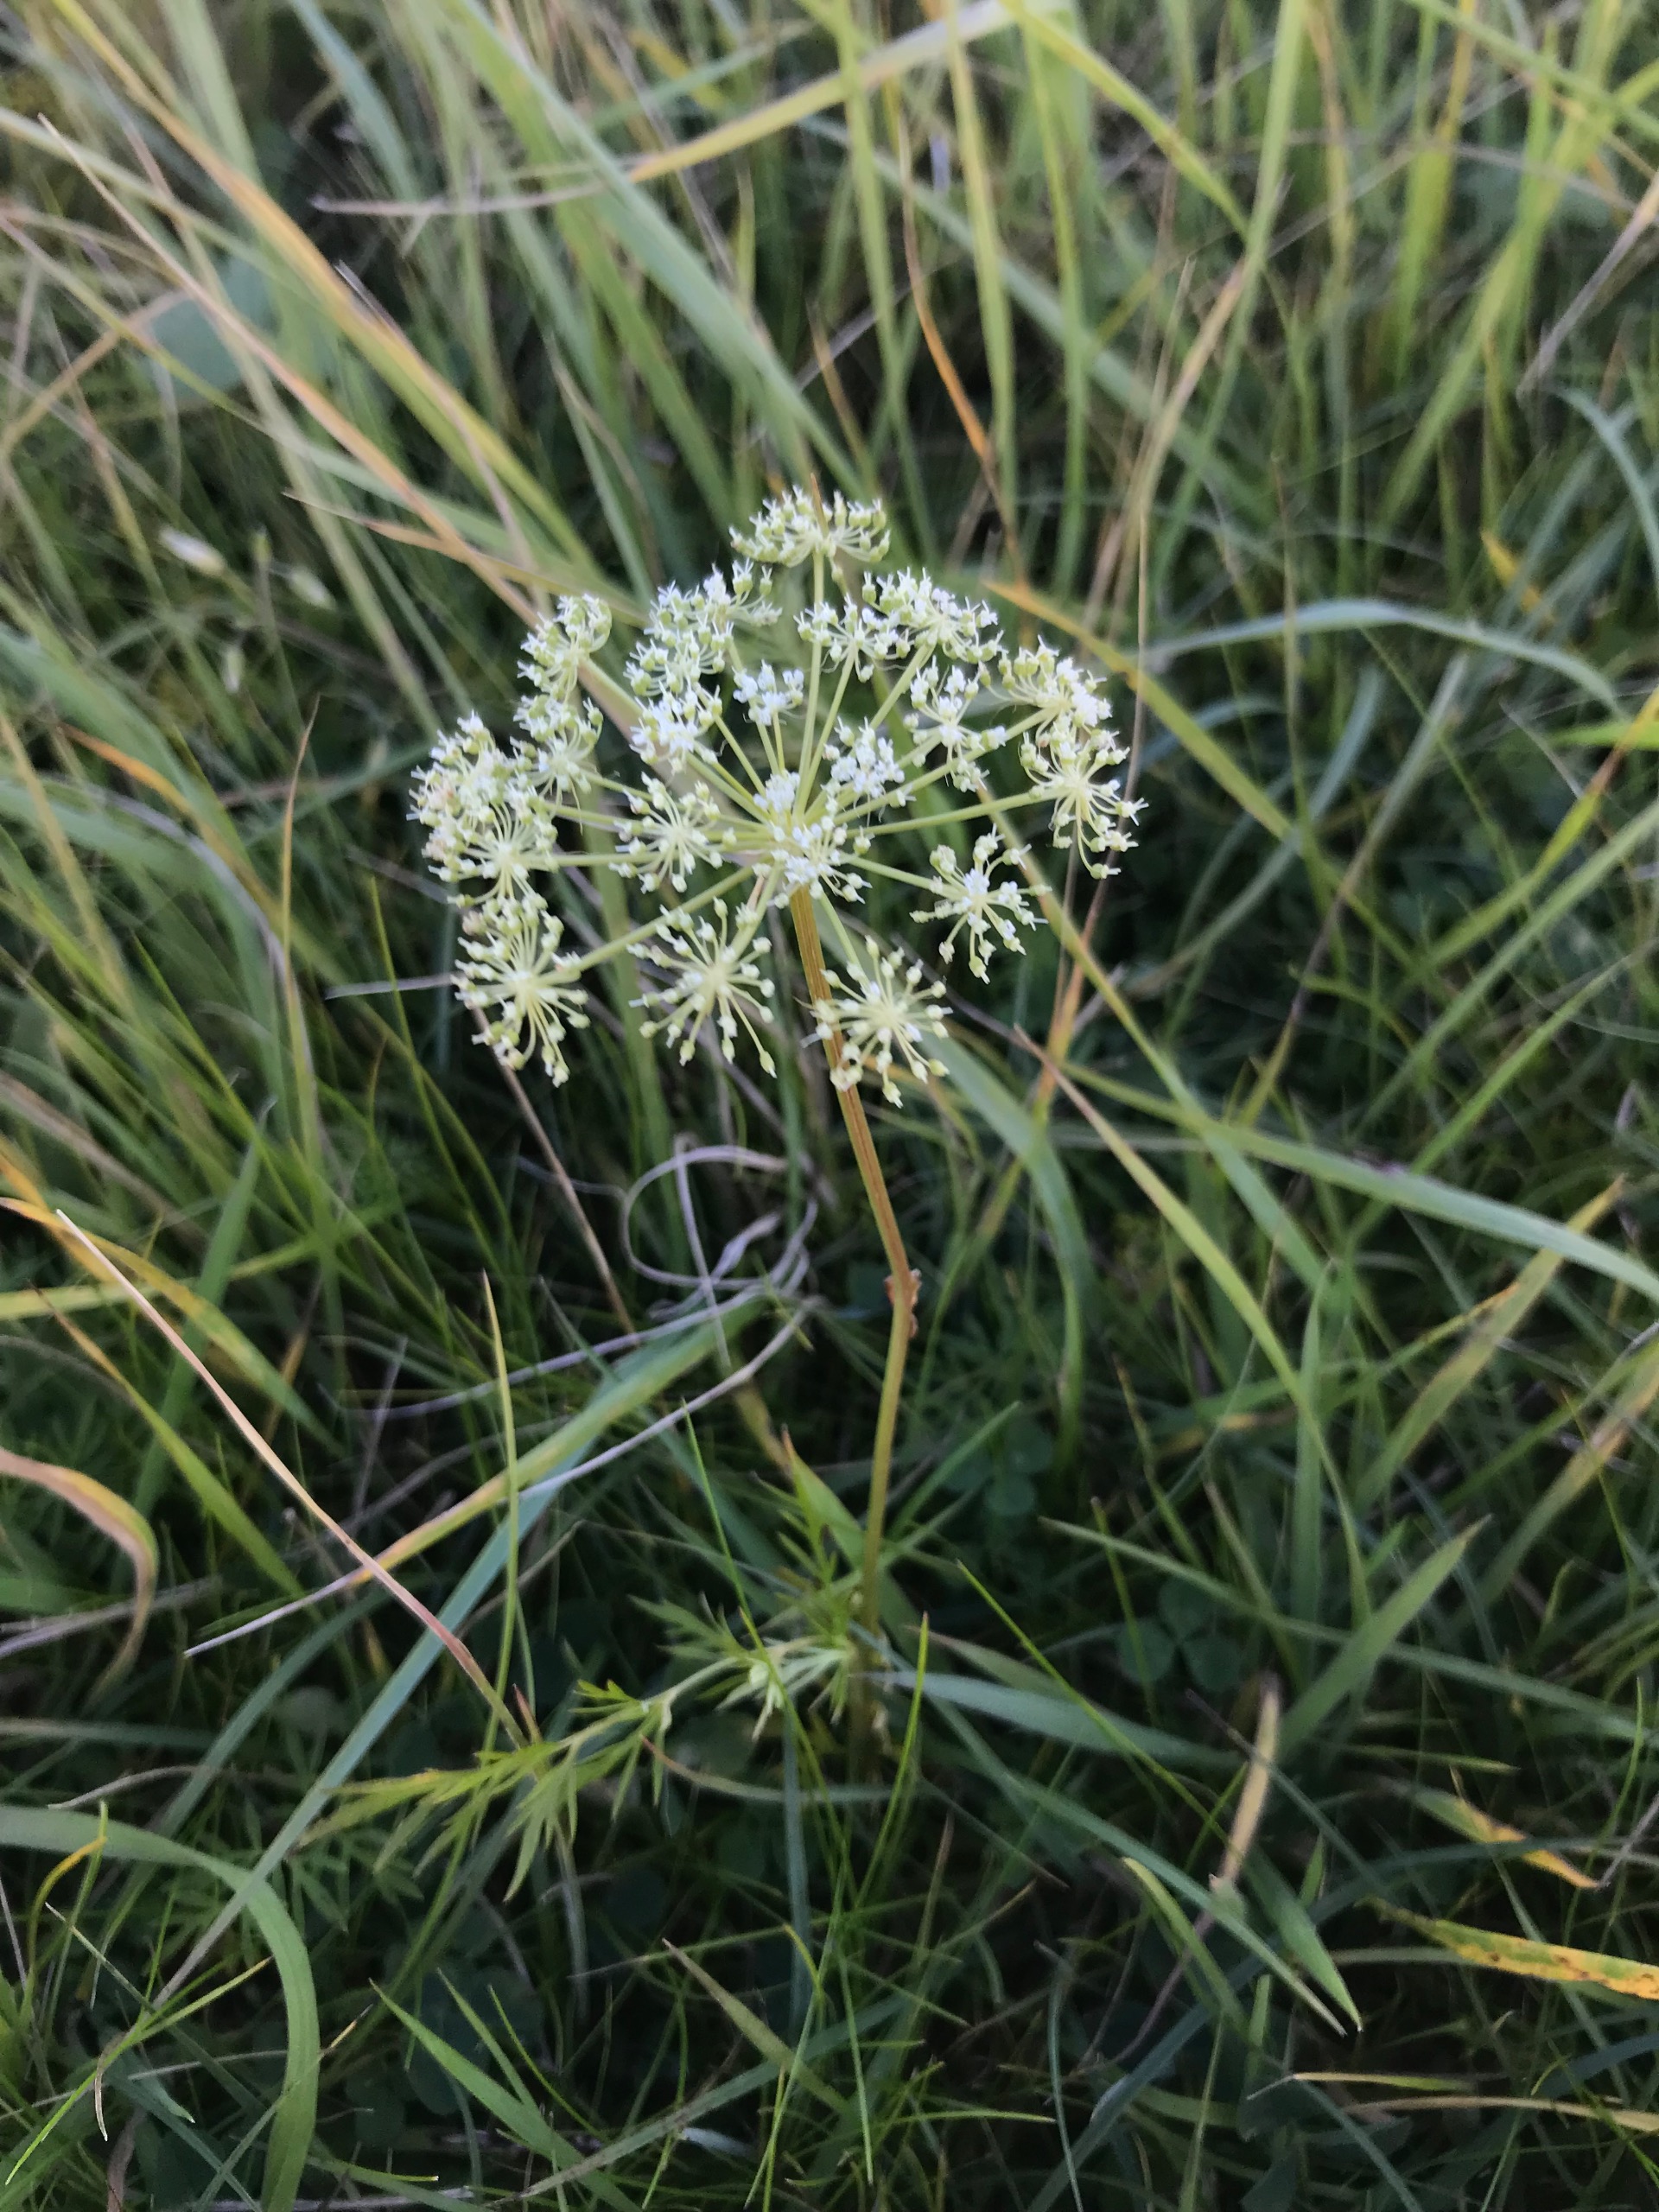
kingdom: Plantae
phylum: Tracheophyta
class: Magnoliopsida
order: Apiales
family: Apiaceae
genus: Kadenia
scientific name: Kadenia dubia
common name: Brændeskærm
